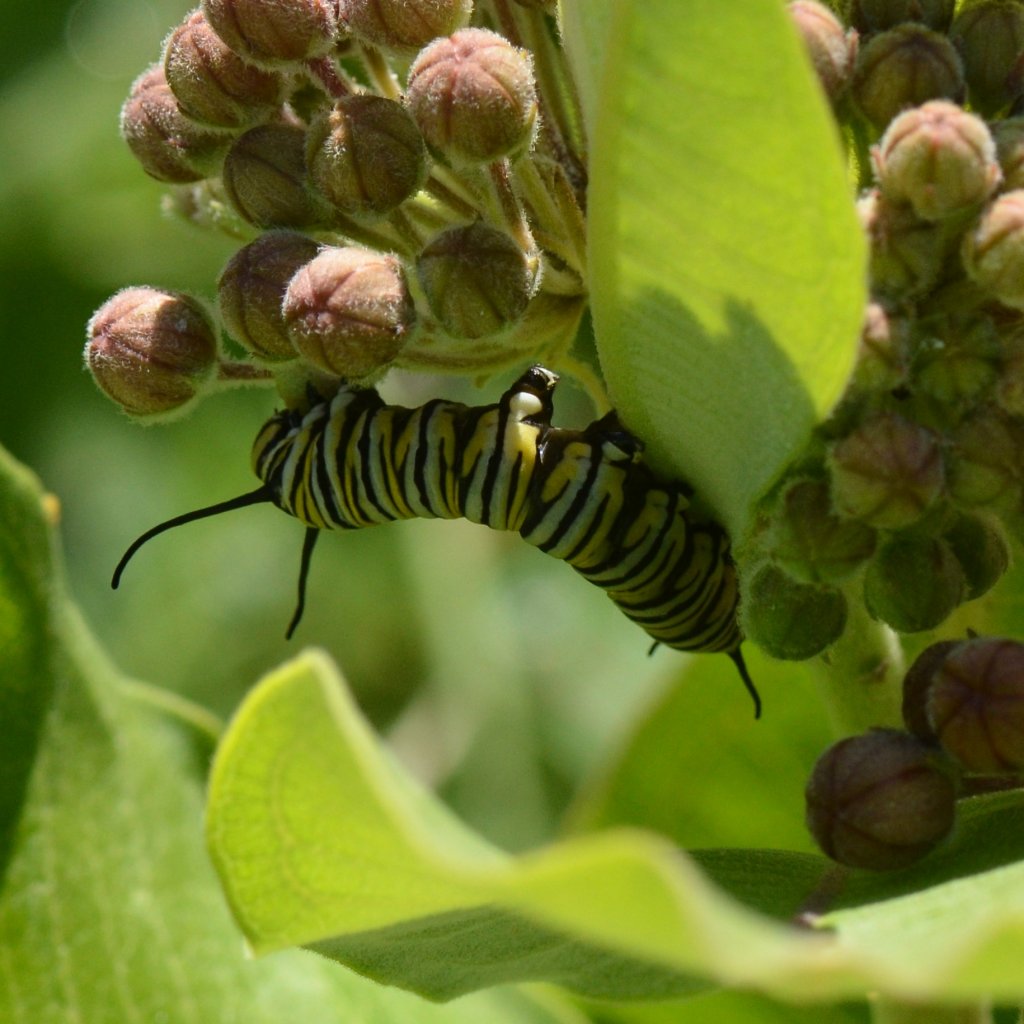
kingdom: Animalia
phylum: Arthropoda
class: Insecta
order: Lepidoptera
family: Nymphalidae
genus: Danaus
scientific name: Danaus plexippus
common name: Monarch
